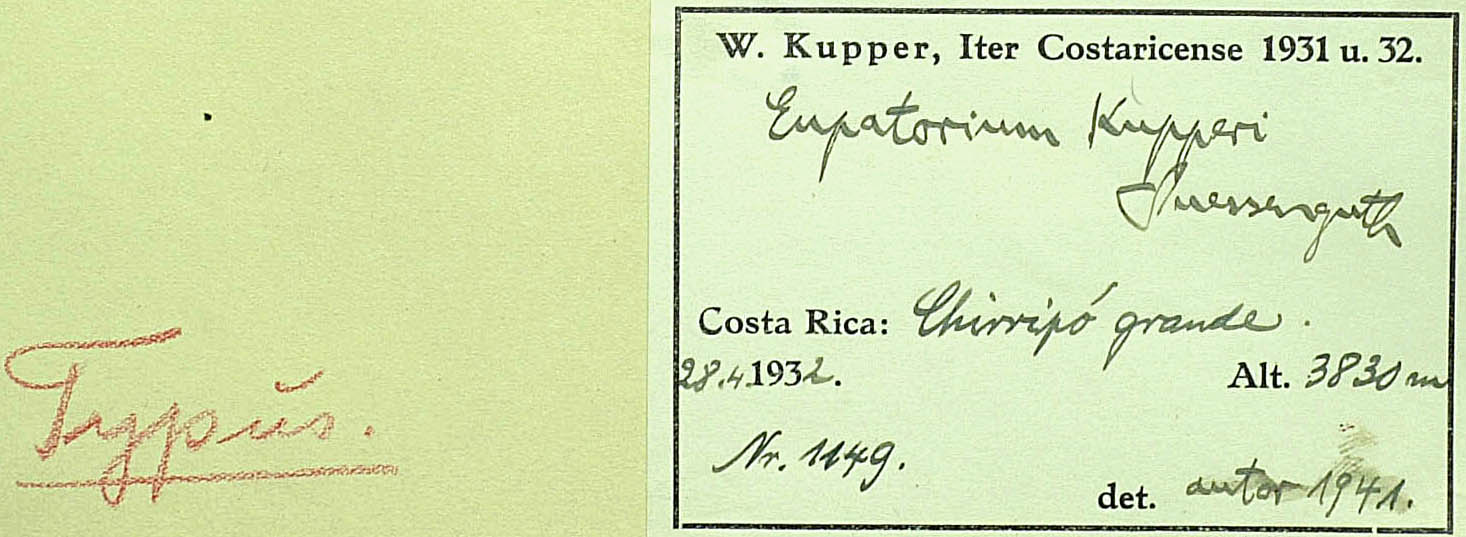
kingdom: Plantae
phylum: Tracheophyta
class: Magnoliopsida
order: Asterales
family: Asteraceae
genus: Ageratina
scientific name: Ageratina kupperi
